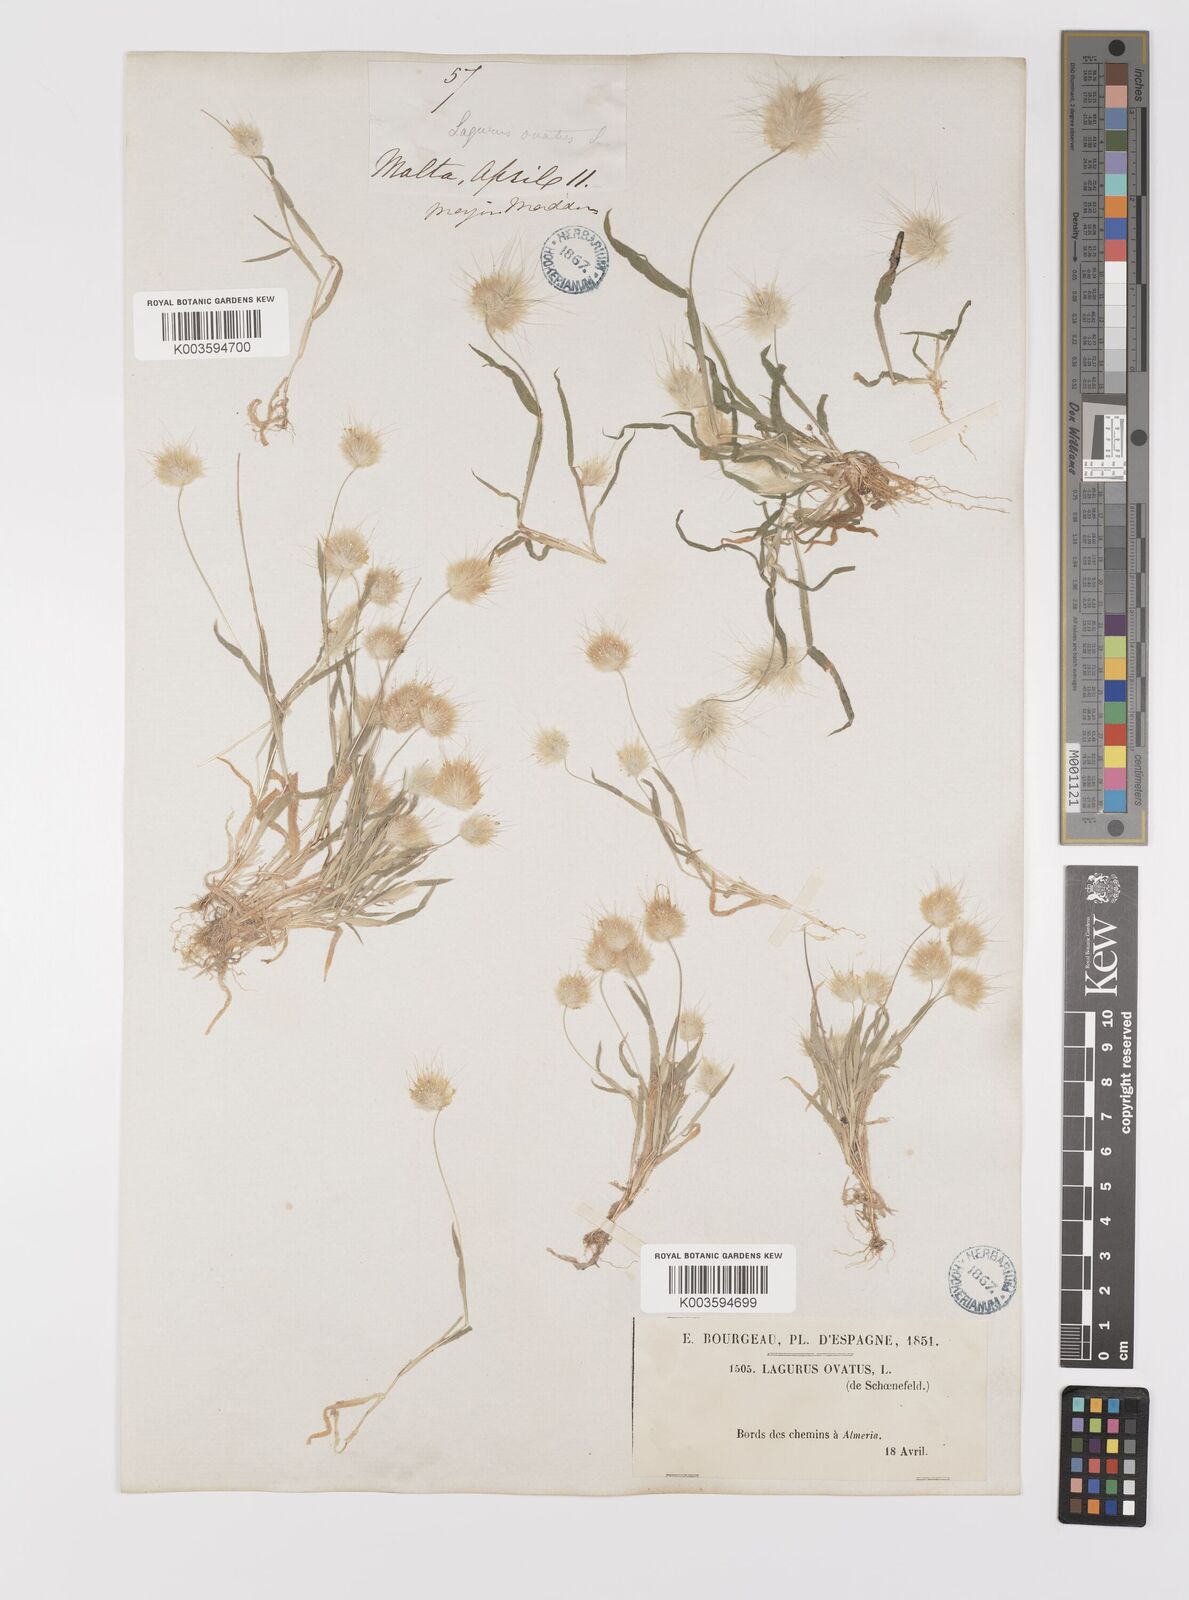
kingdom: Plantae
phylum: Tracheophyta
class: Liliopsida
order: Poales
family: Poaceae
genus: Lagurus
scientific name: Lagurus ovatus
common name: Hare's-tail
